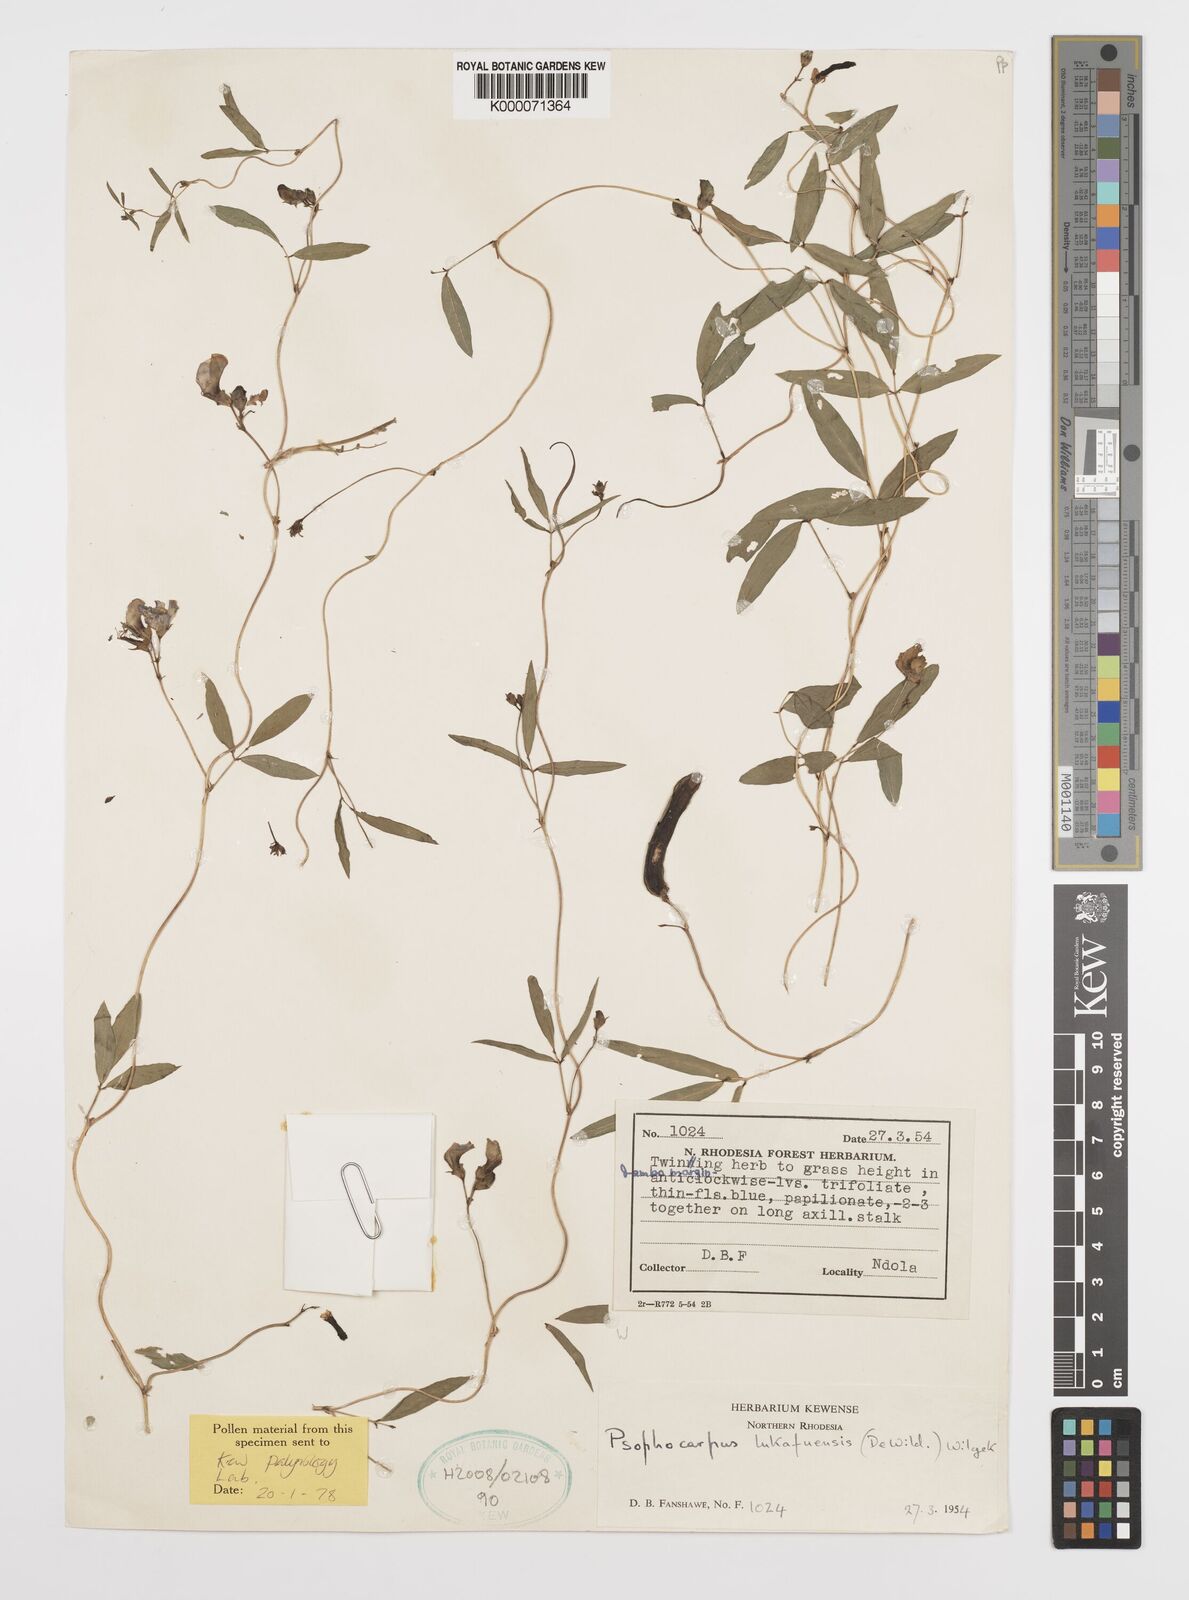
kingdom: Plantae
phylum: Tracheophyta
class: Magnoliopsida
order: Fabales
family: Fabaceae
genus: Psophocarpus
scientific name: Psophocarpus lukafuensis
